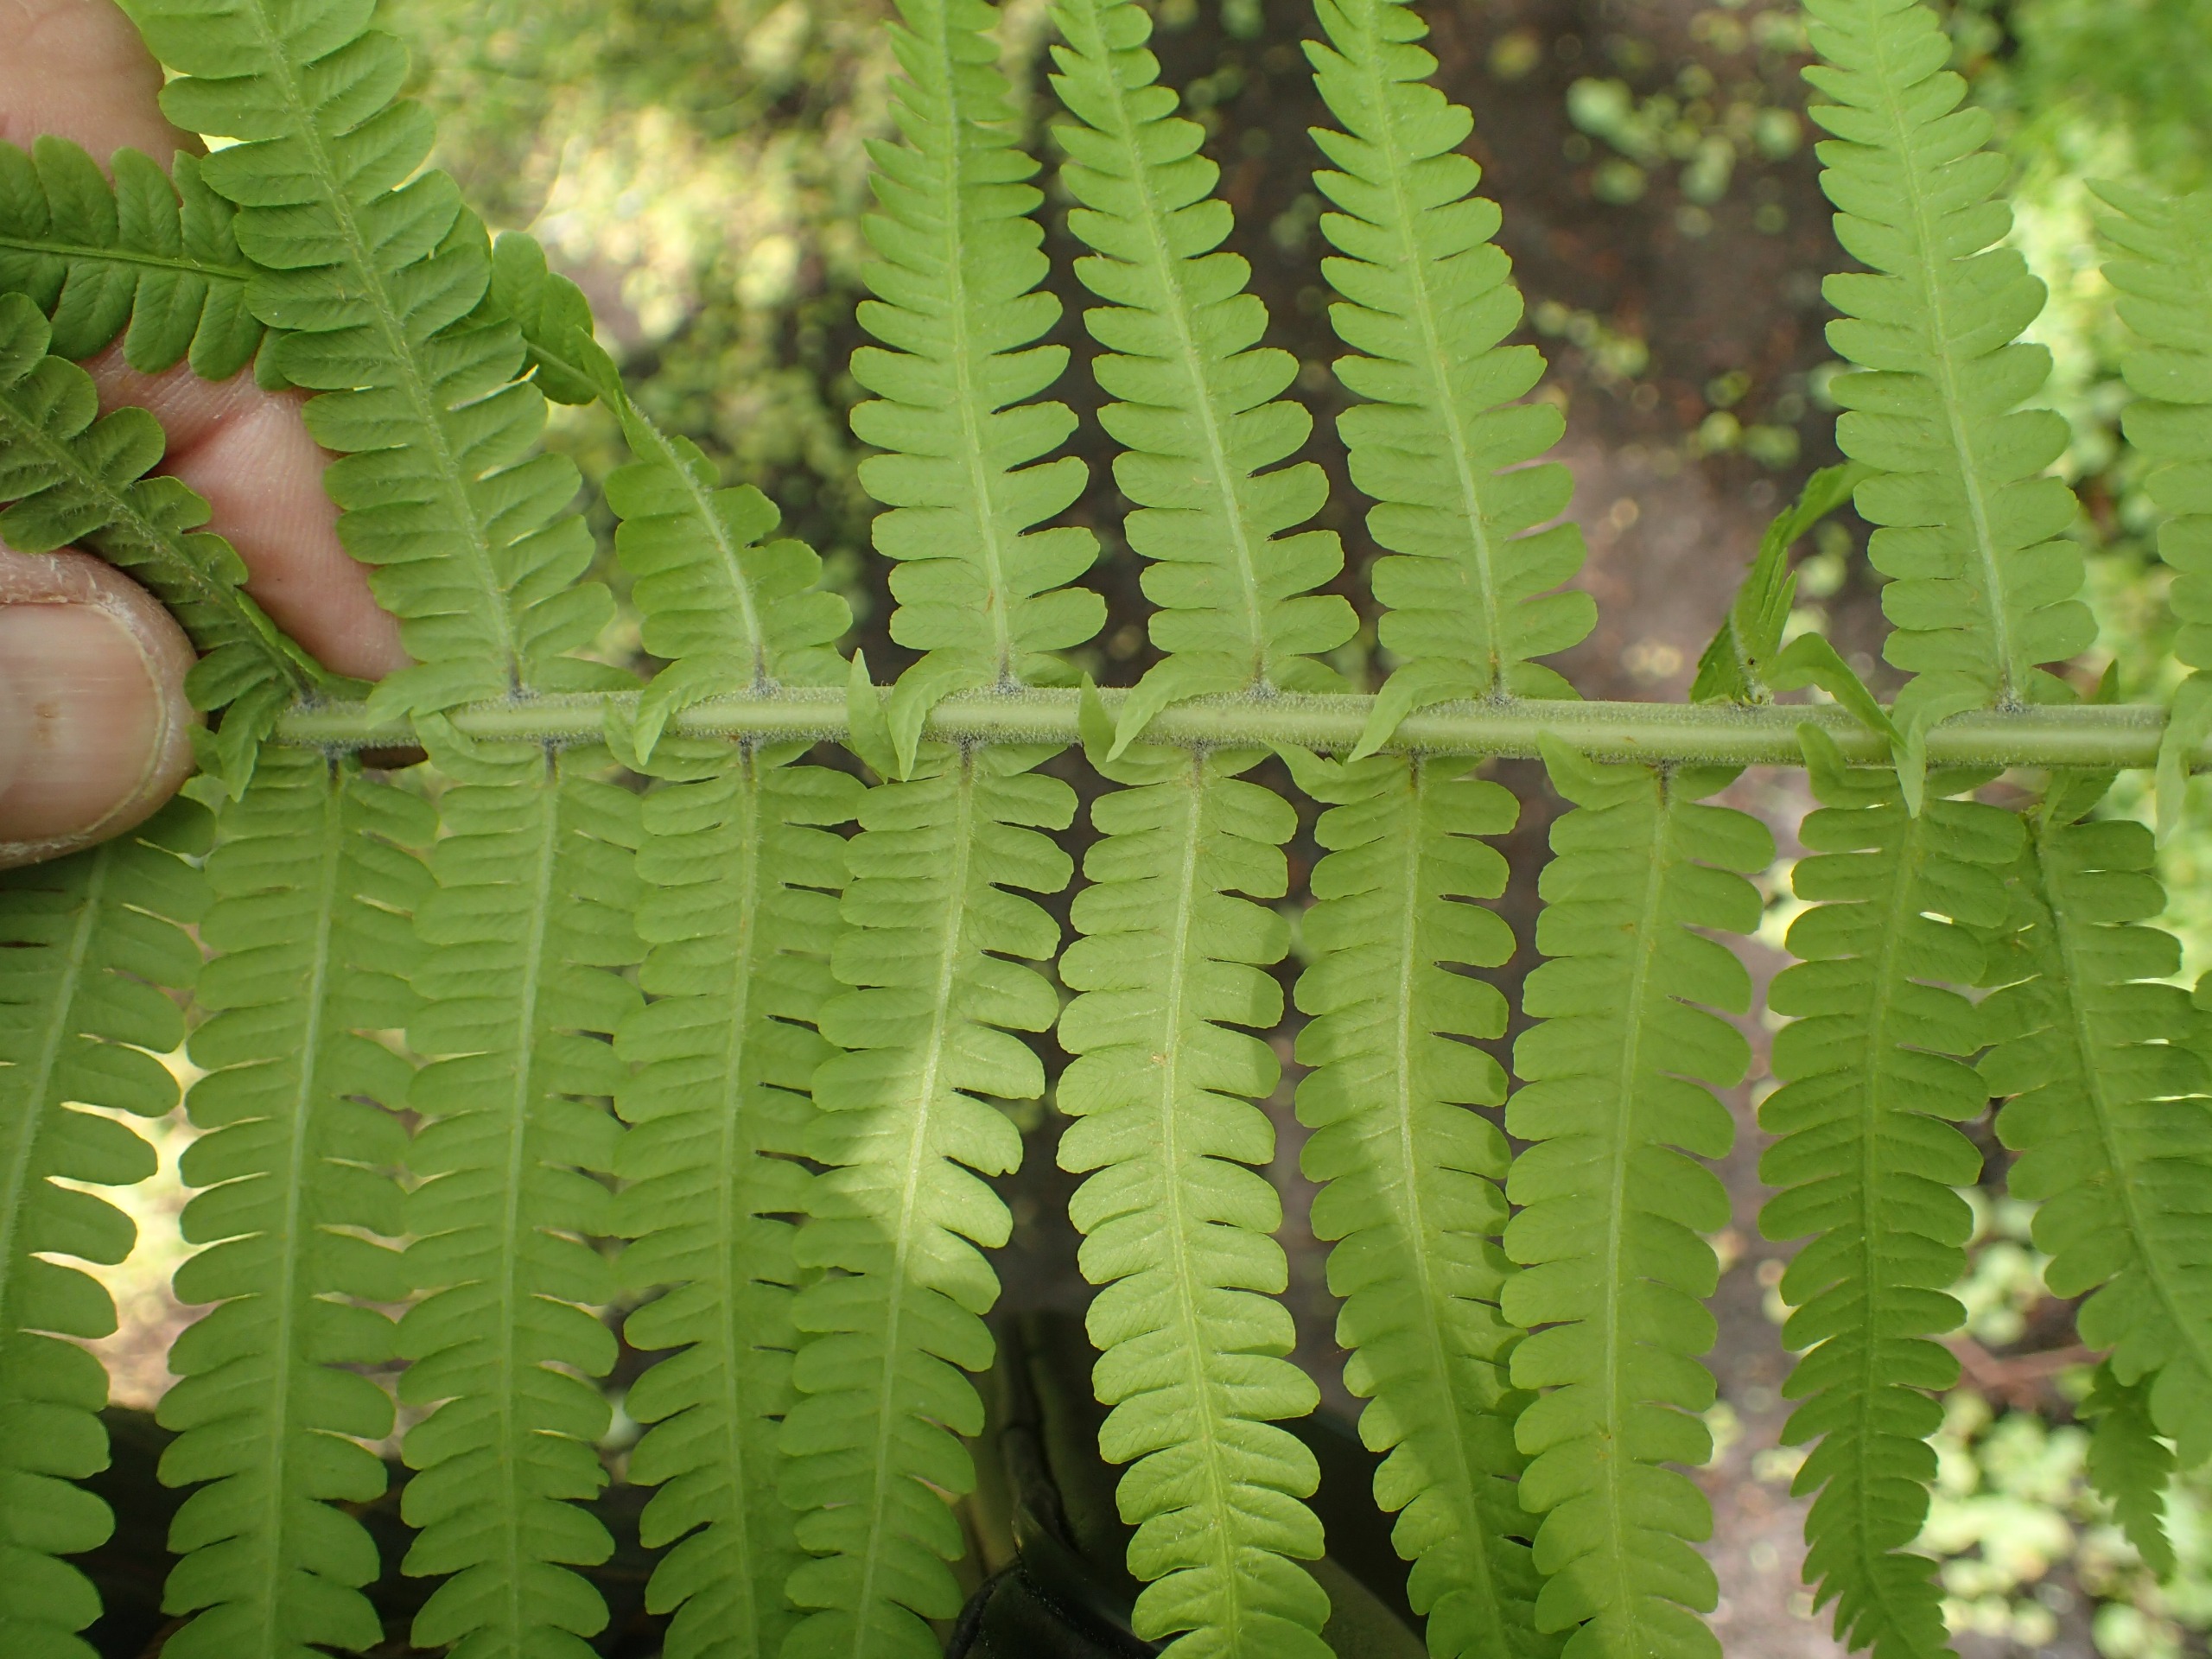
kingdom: Plantae
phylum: Tracheophyta
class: Polypodiopsida
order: Polypodiales
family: Onocleaceae
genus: Matteuccia
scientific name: Matteuccia struthiopteris
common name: Strudsvinge
